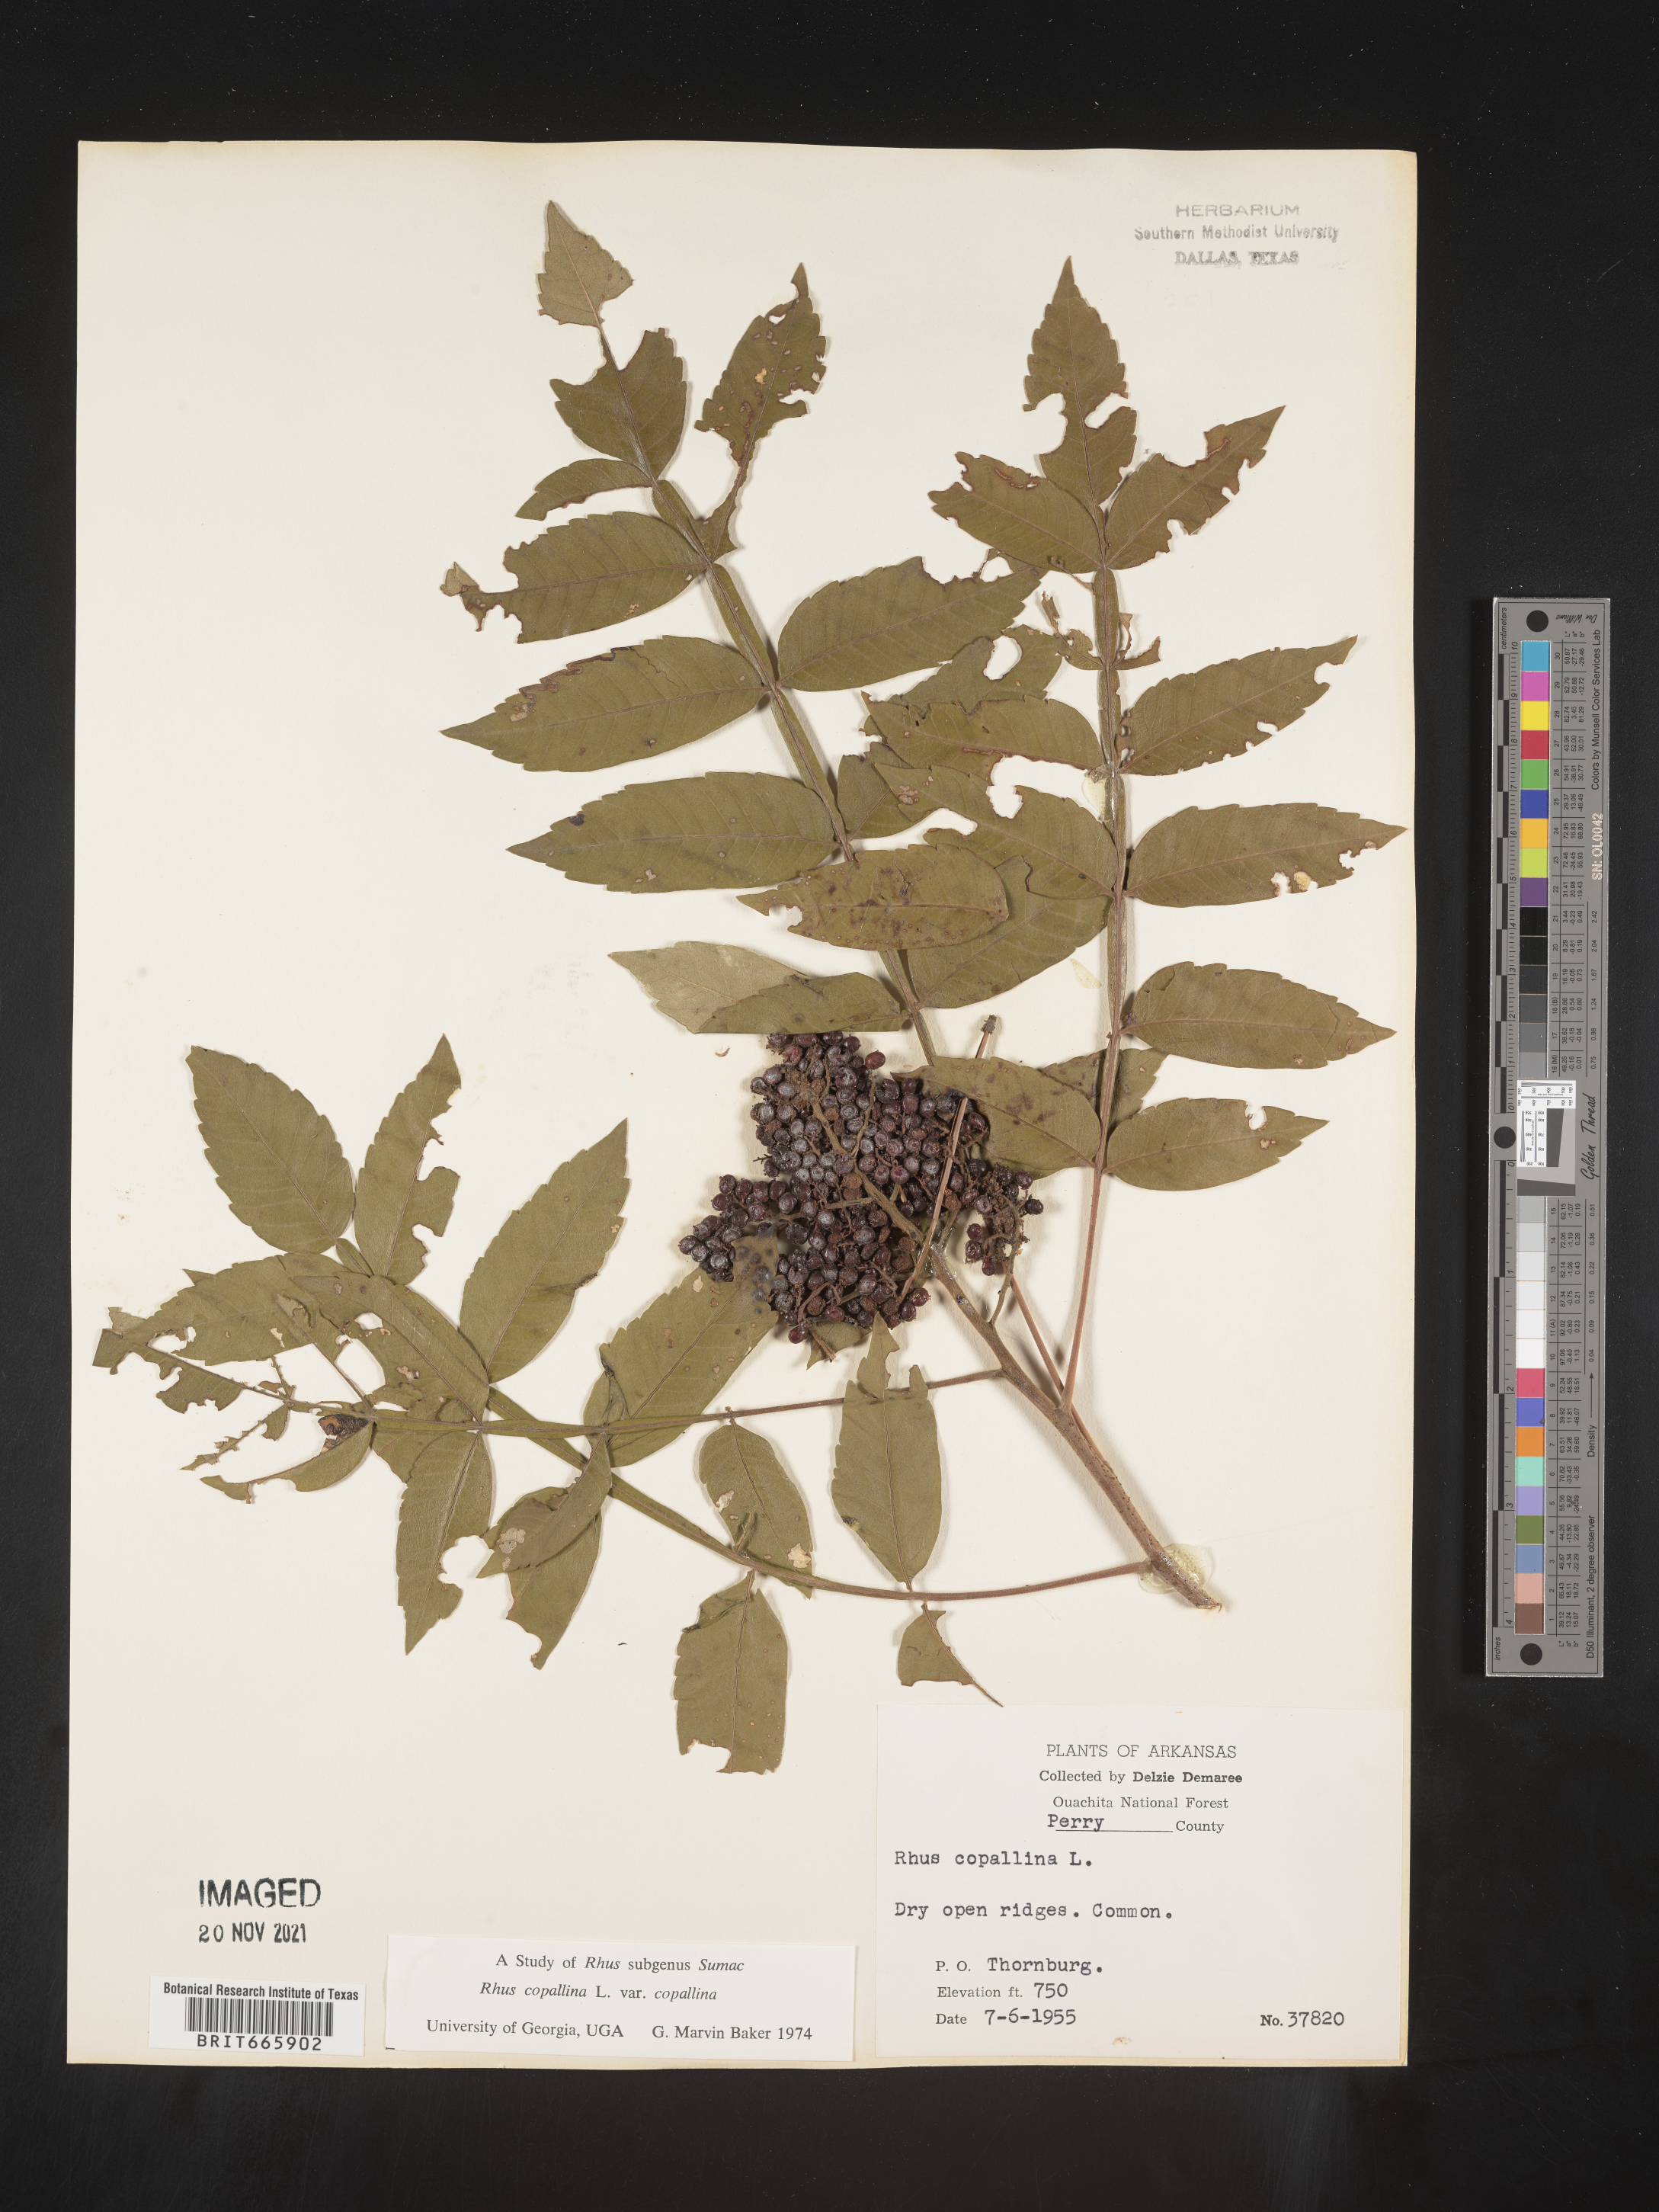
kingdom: Plantae
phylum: Tracheophyta
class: Magnoliopsida
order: Sapindales
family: Anacardiaceae
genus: Rhus
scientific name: Rhus copallina
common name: Shining sumac
